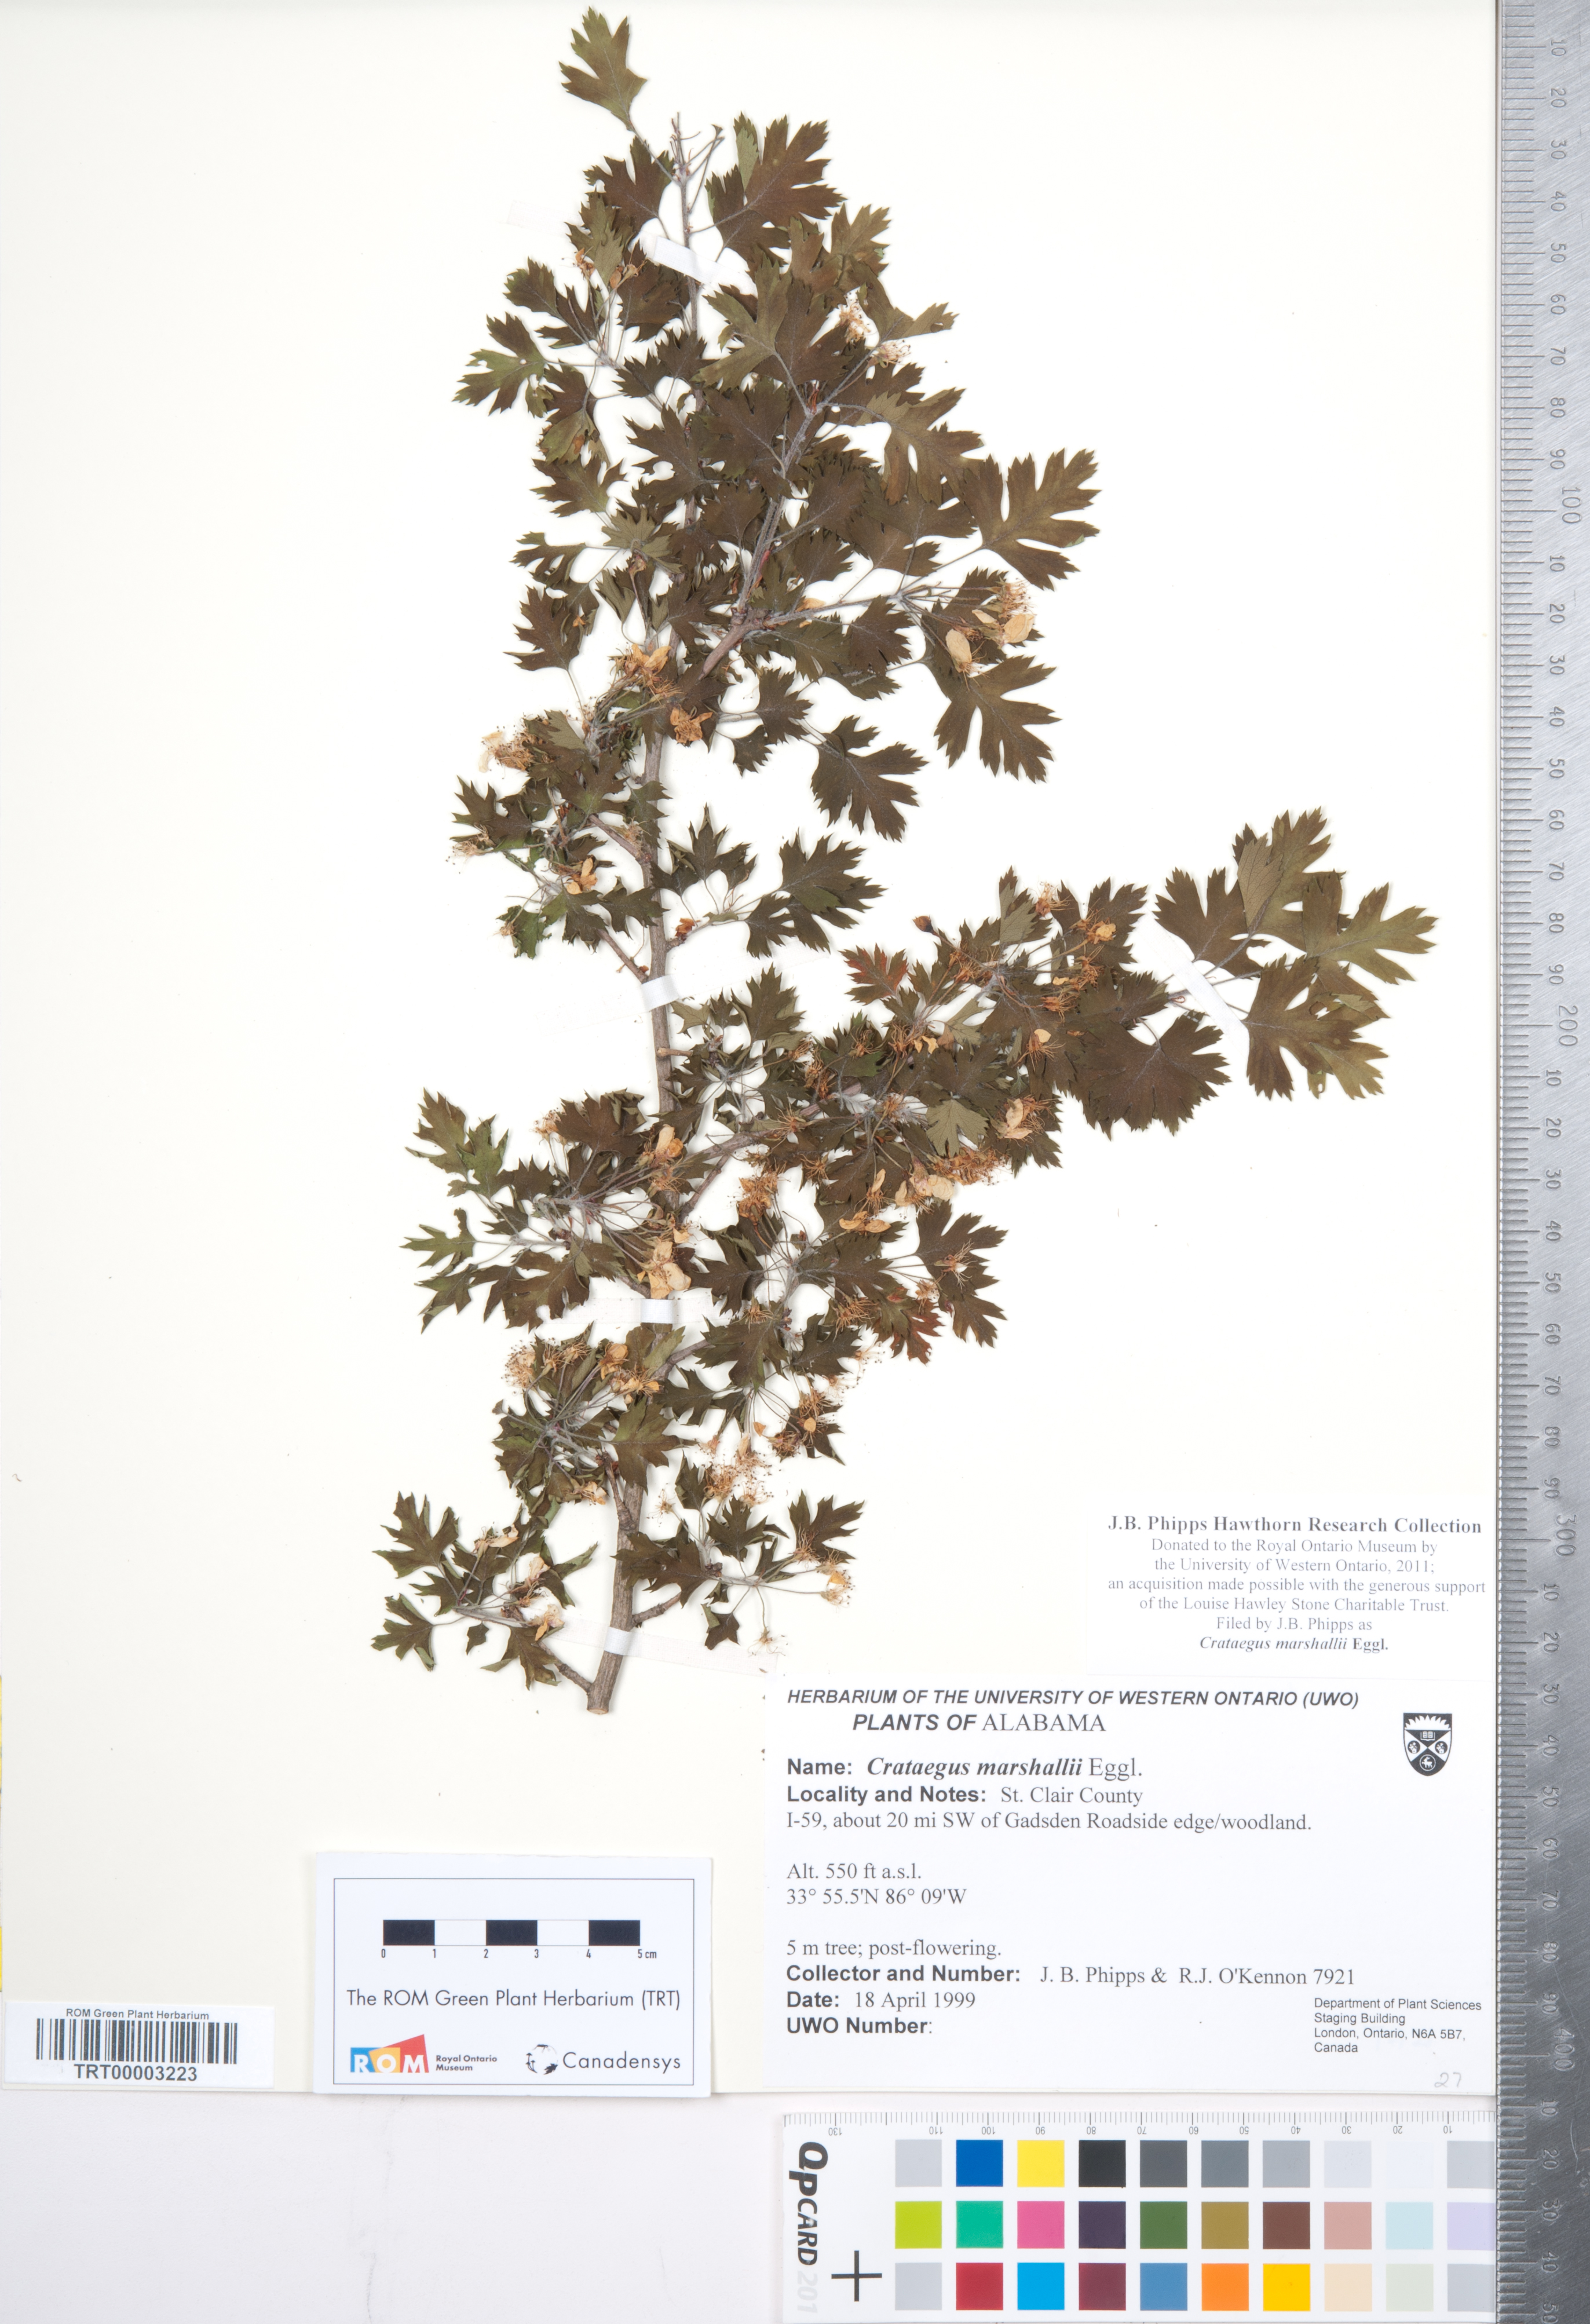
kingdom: Plantae
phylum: Tracheophyta
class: Magnoliopsida
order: Rosales
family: Rosaceae
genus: Crataegus
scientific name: Crataegus marshallii
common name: Parsley-hawthorn
